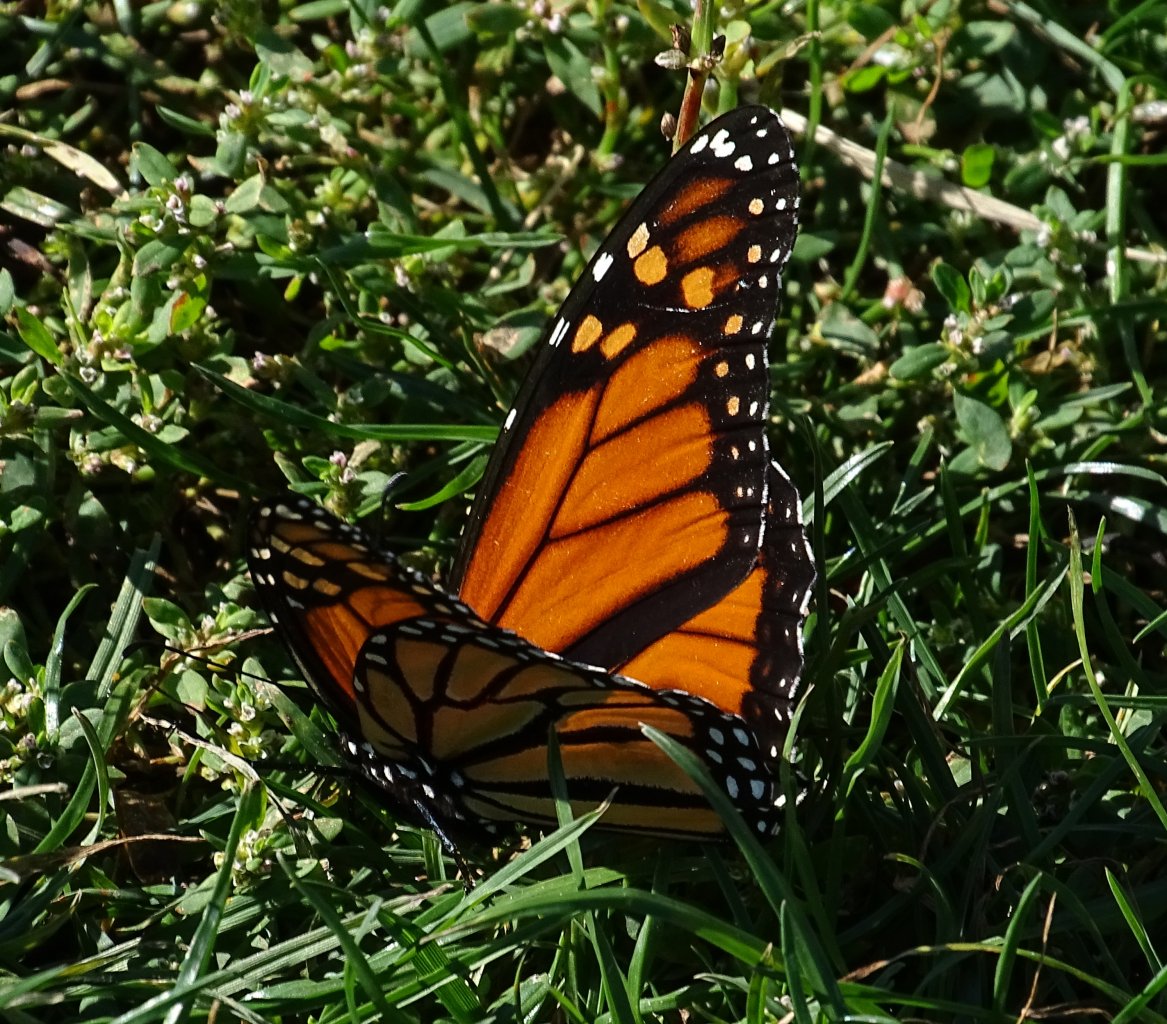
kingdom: Animalia
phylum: Arthropoda
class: Insecta
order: Lepidoptera
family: Nymphalidae
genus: Danaus
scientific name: Danaus plexippus
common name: Monarch
